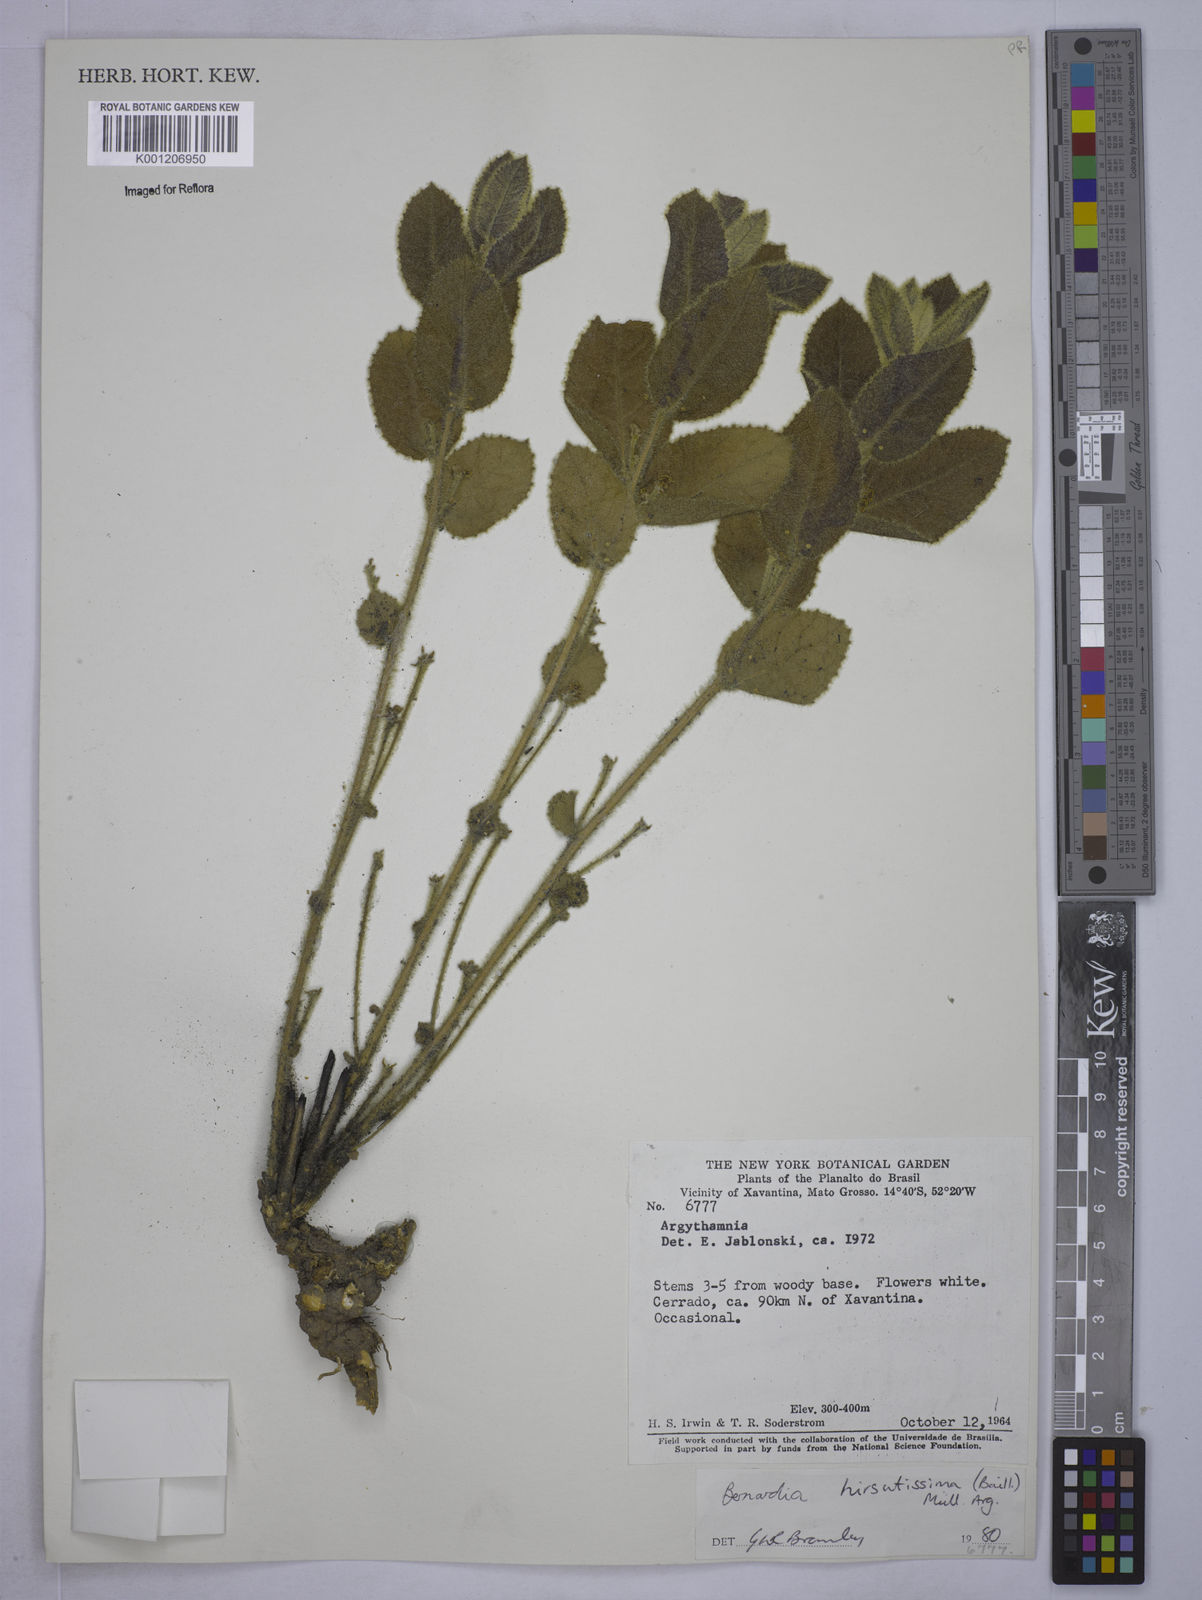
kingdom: Plantae
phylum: Tracheophyta
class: Magnoliopsida
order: Malpighiales
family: Euphorbiaceae
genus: Bernardia
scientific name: Bernardia
